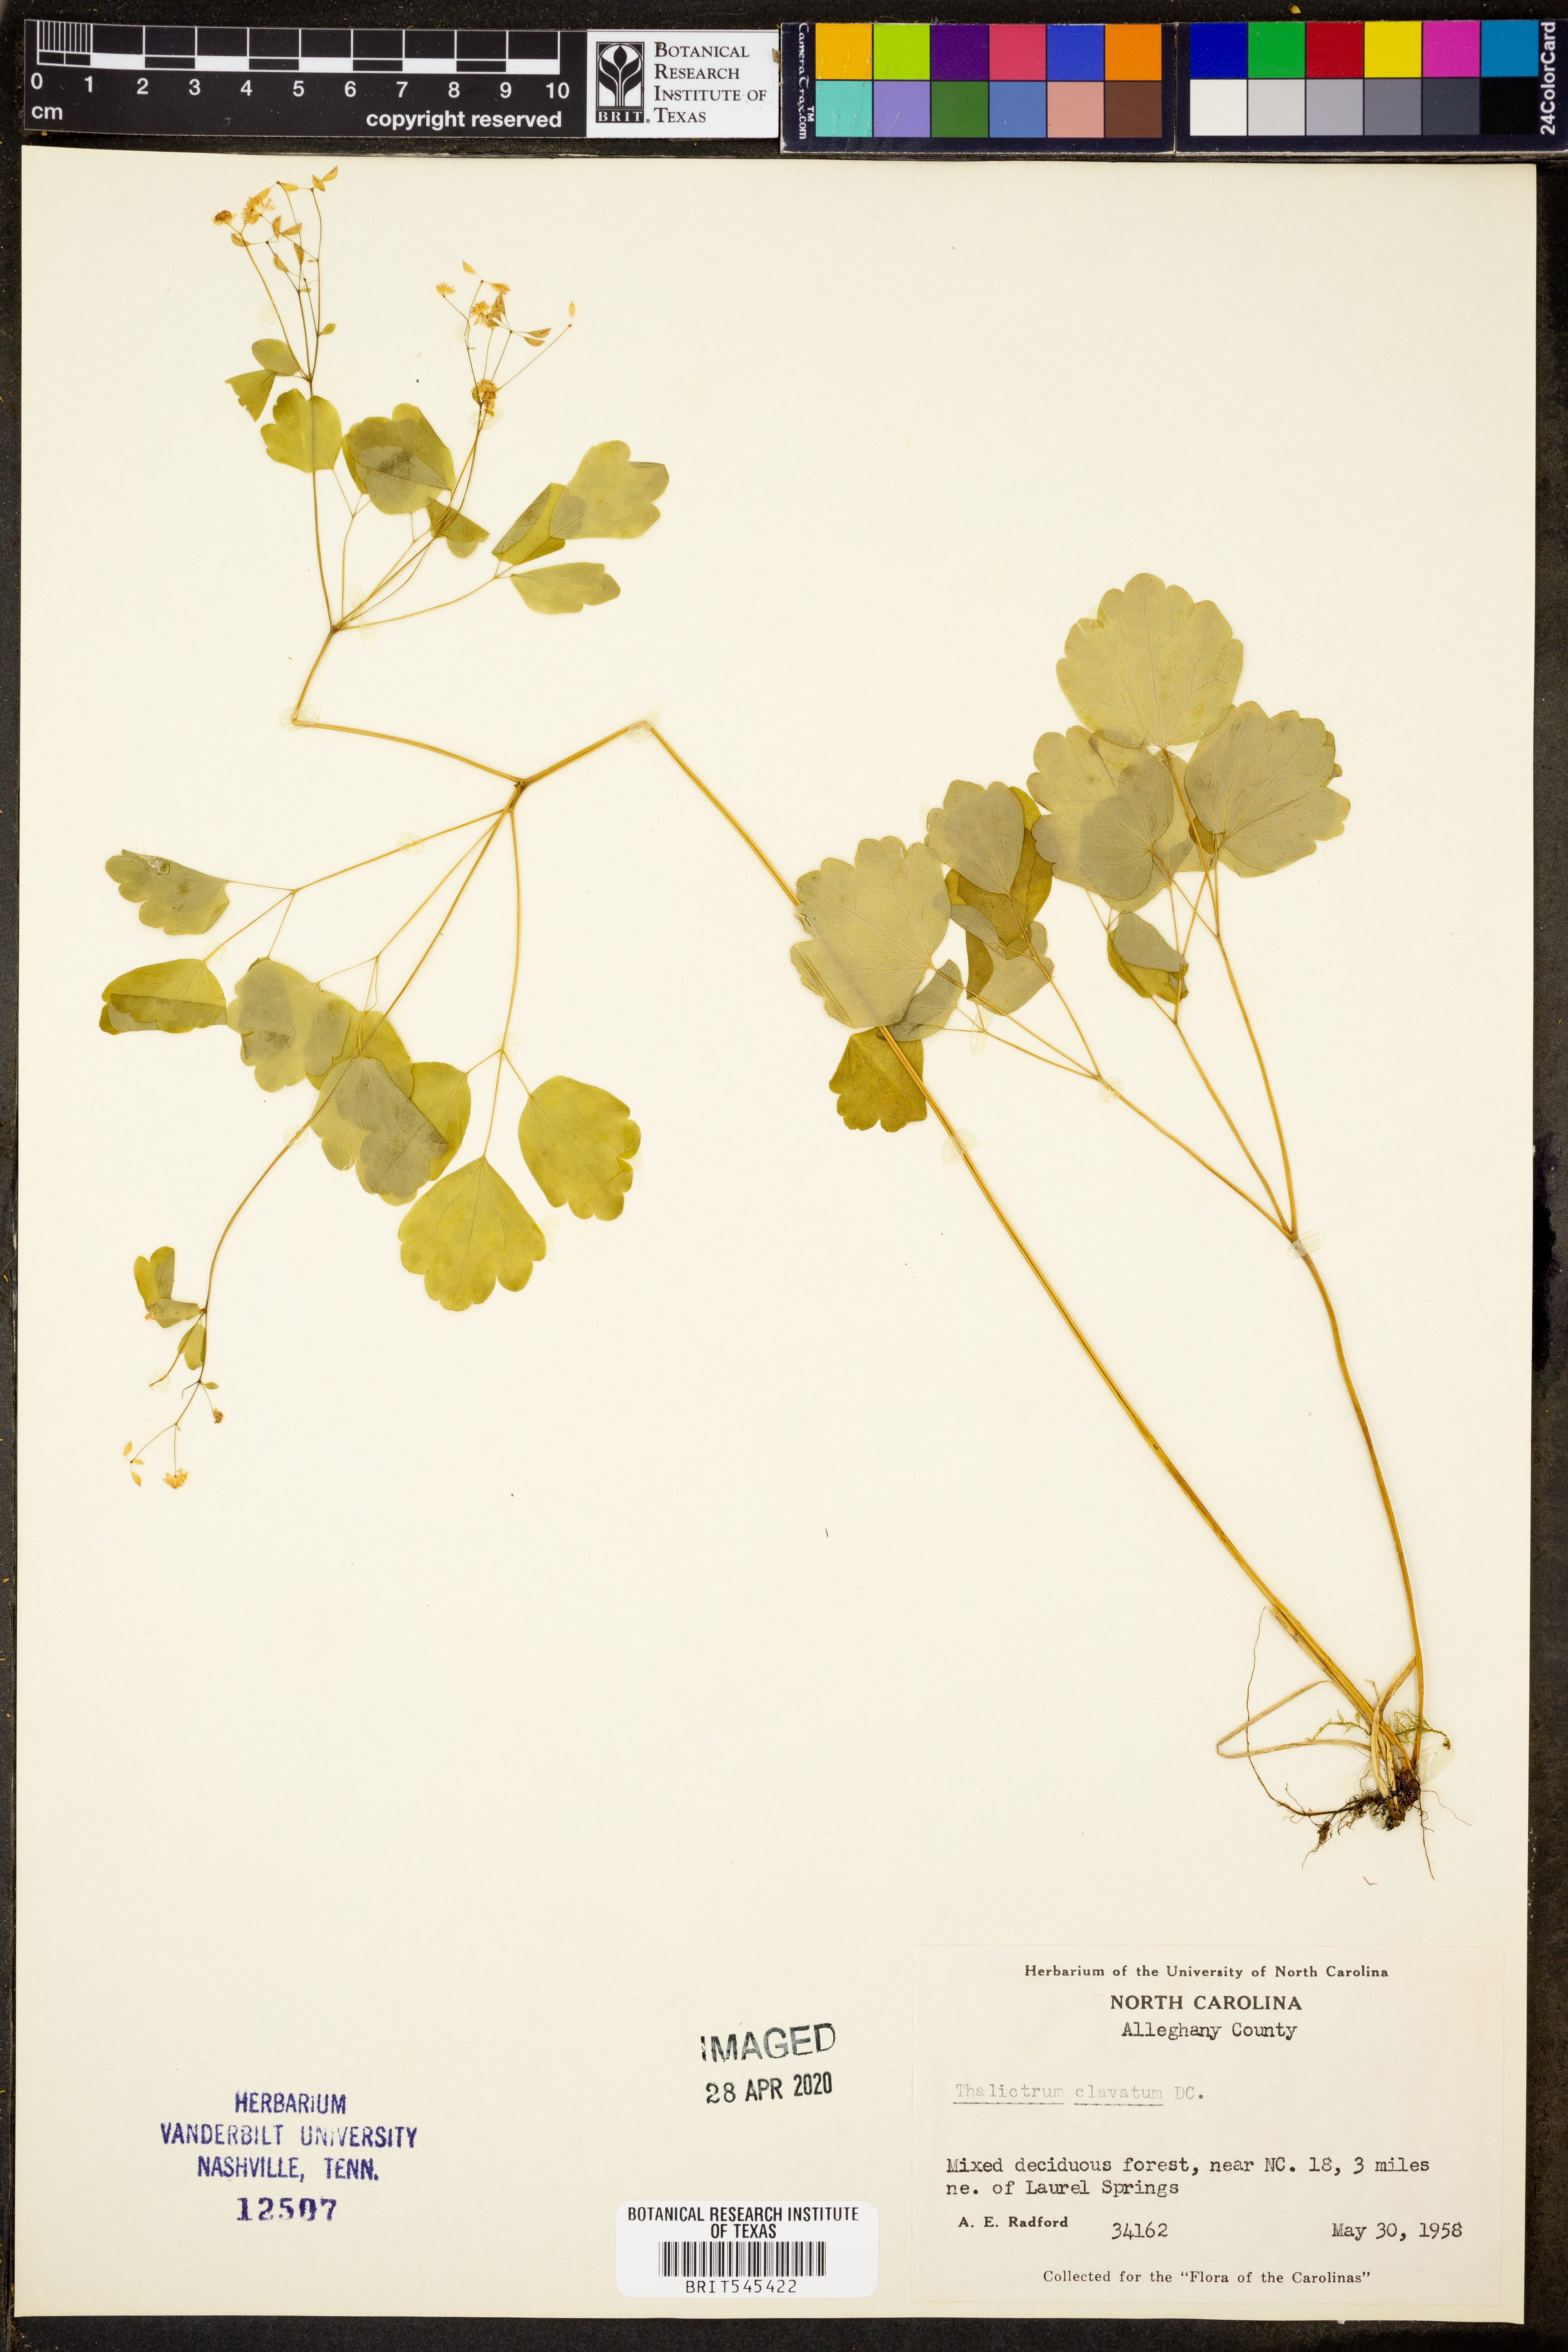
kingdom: Plantae
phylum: Tracheophyta
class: Magnoliopsida
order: Ranunculales
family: Ranunculaceae
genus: Thalictrum
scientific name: Thalictrum clavatum
